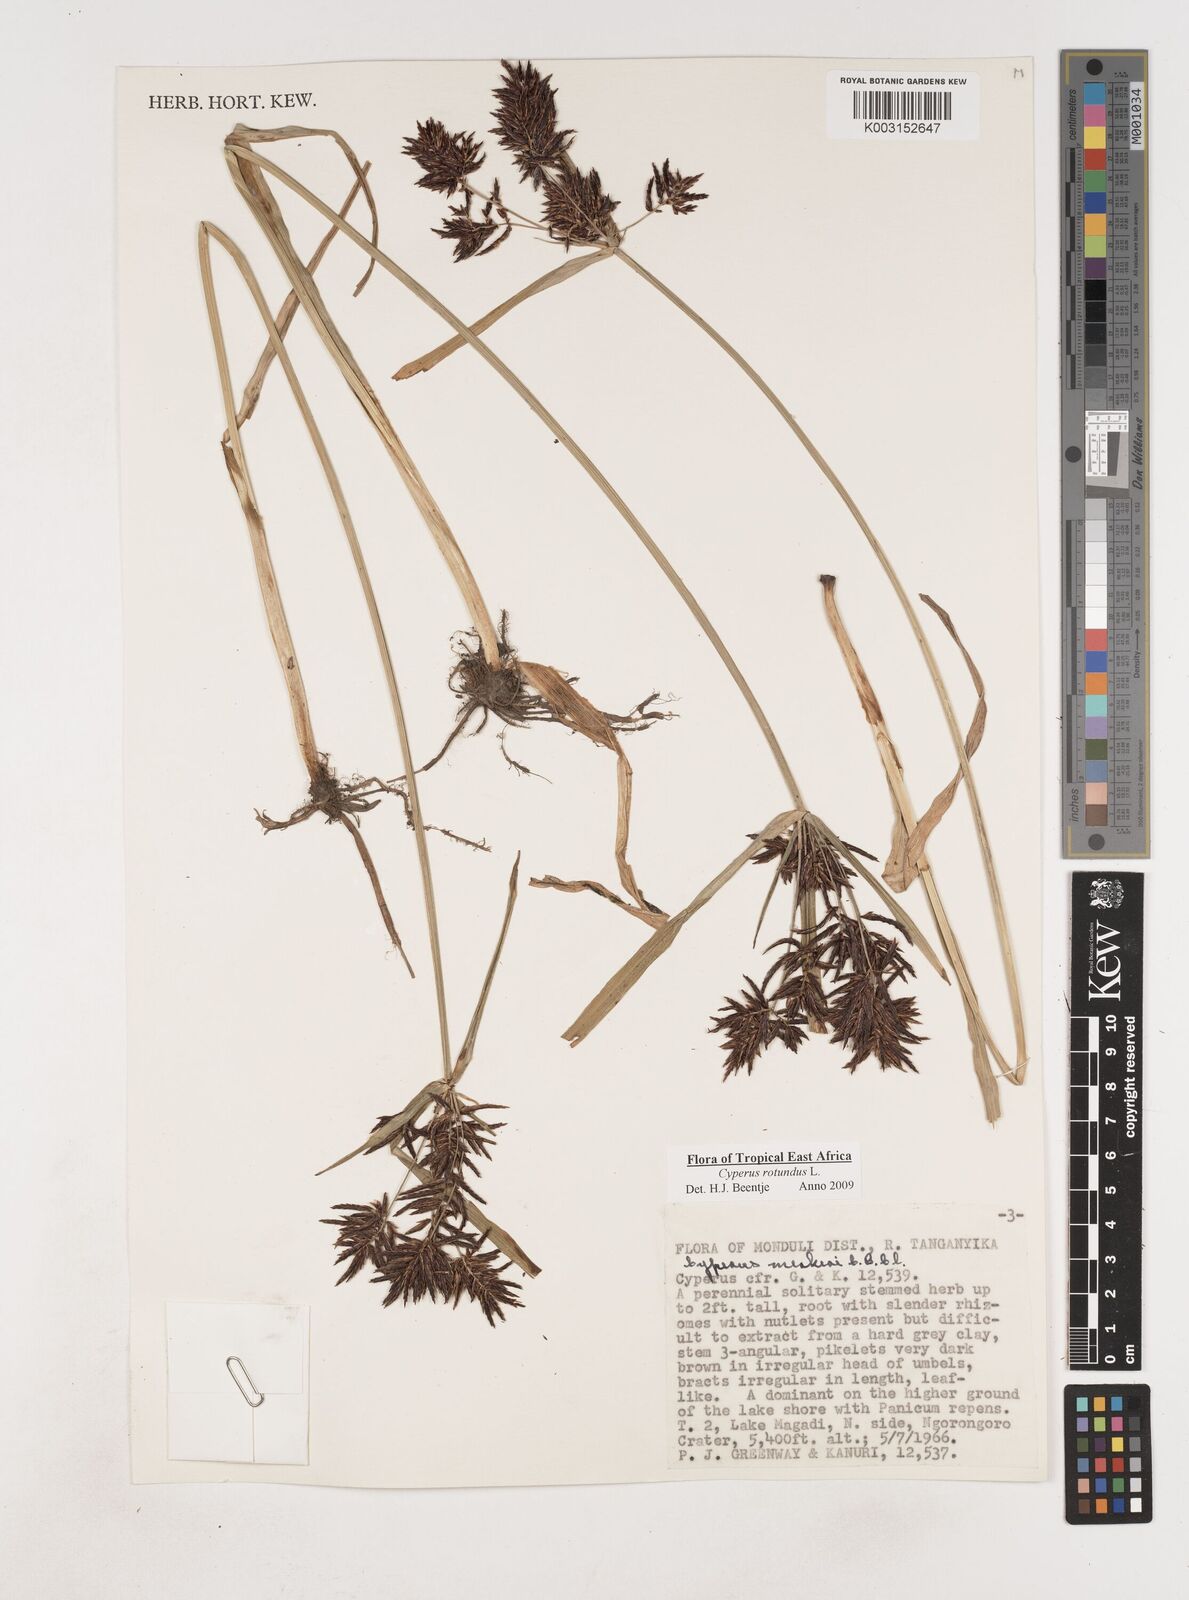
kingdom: Plantae
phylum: Tracheophyta
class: Liliopsida
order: Poales
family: Cyperaceae
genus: Cyperus
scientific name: Cyperus rotundus
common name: Nutgrass
